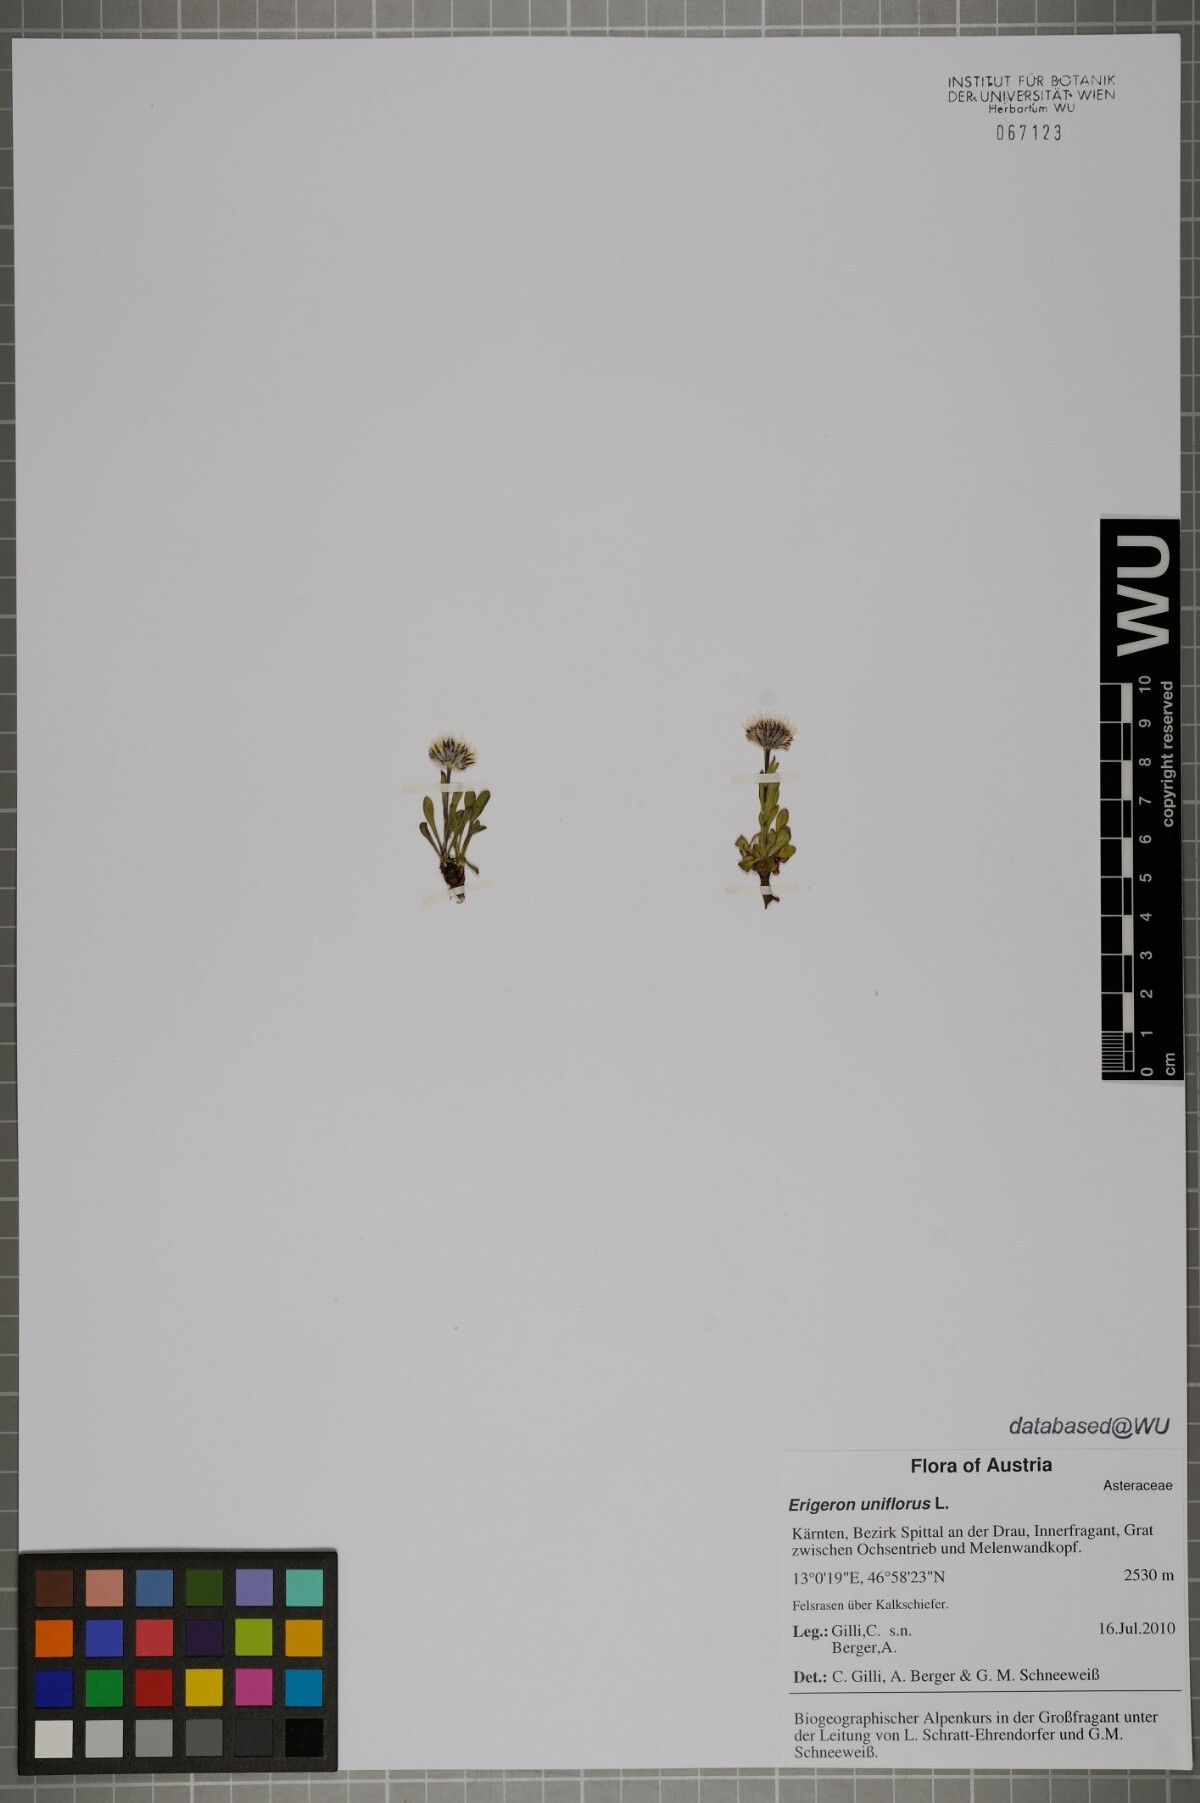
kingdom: Plantae
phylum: Tracheophyta
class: Magnoliopsida
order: Asterales
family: Asteraceae
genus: Erigeron
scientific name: Erigeron uniflorus
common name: Northern daisy
